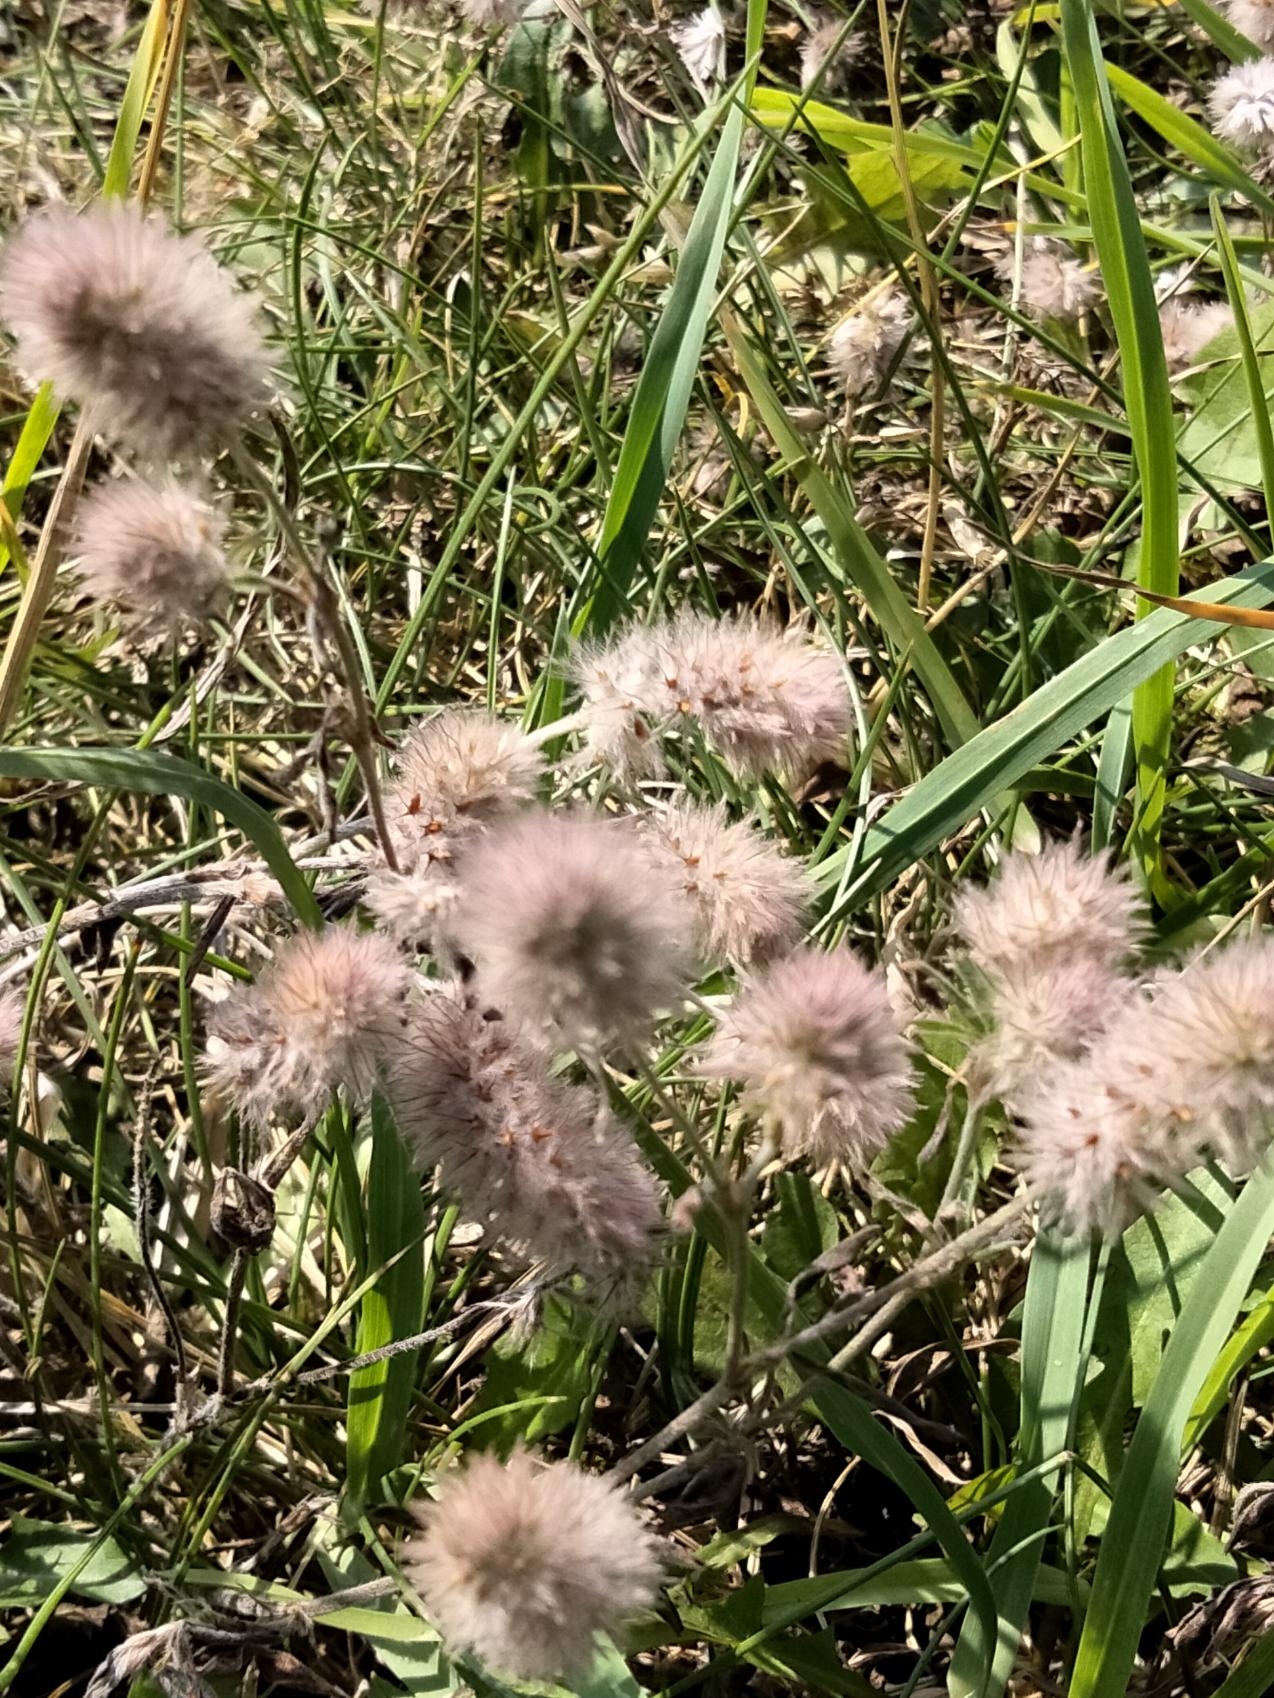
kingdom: Plantae
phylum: Tracheophyta
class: Magnoliopsida
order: Fabales
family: Fabaceae
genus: Trifolium
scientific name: Trifolium arvense
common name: Hare-kløver
